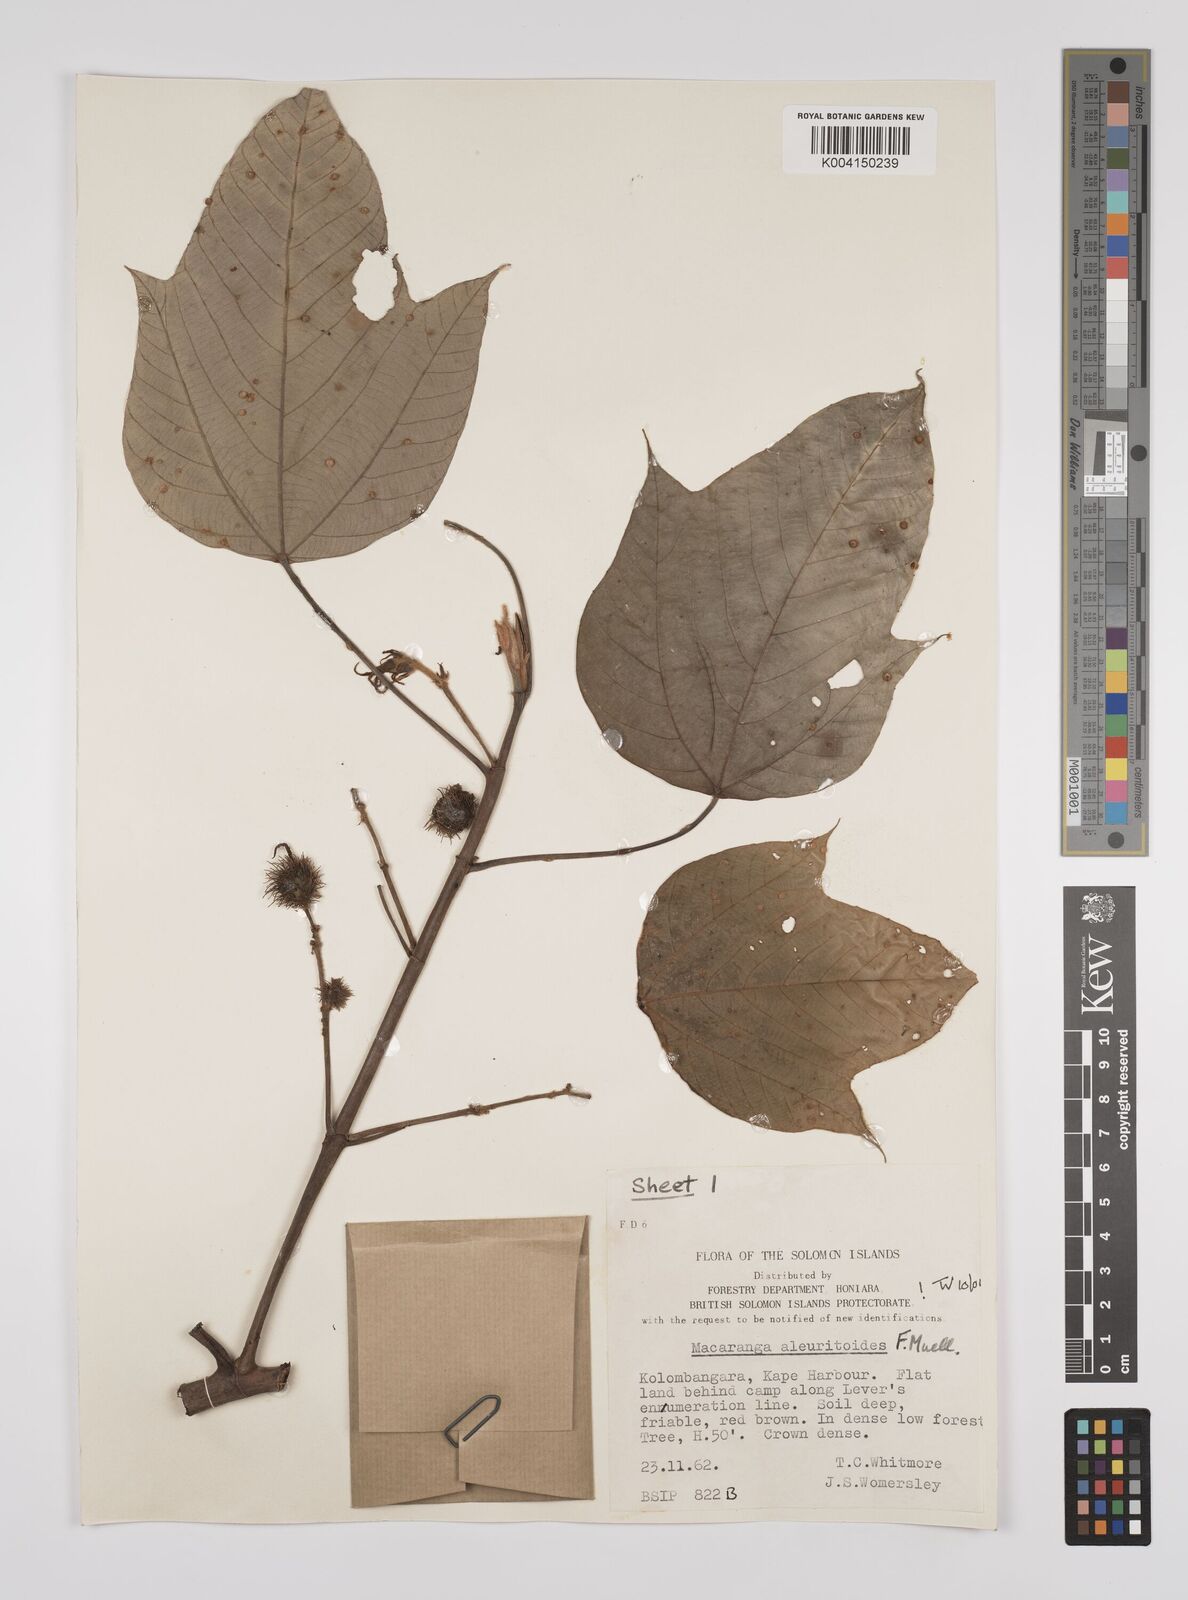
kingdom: Plantae
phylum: Tracheophyta
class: Magnoliopsida
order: Malpighiales
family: Euphorbiaceae
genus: Macaranga
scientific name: Macaranga aleuritoides
